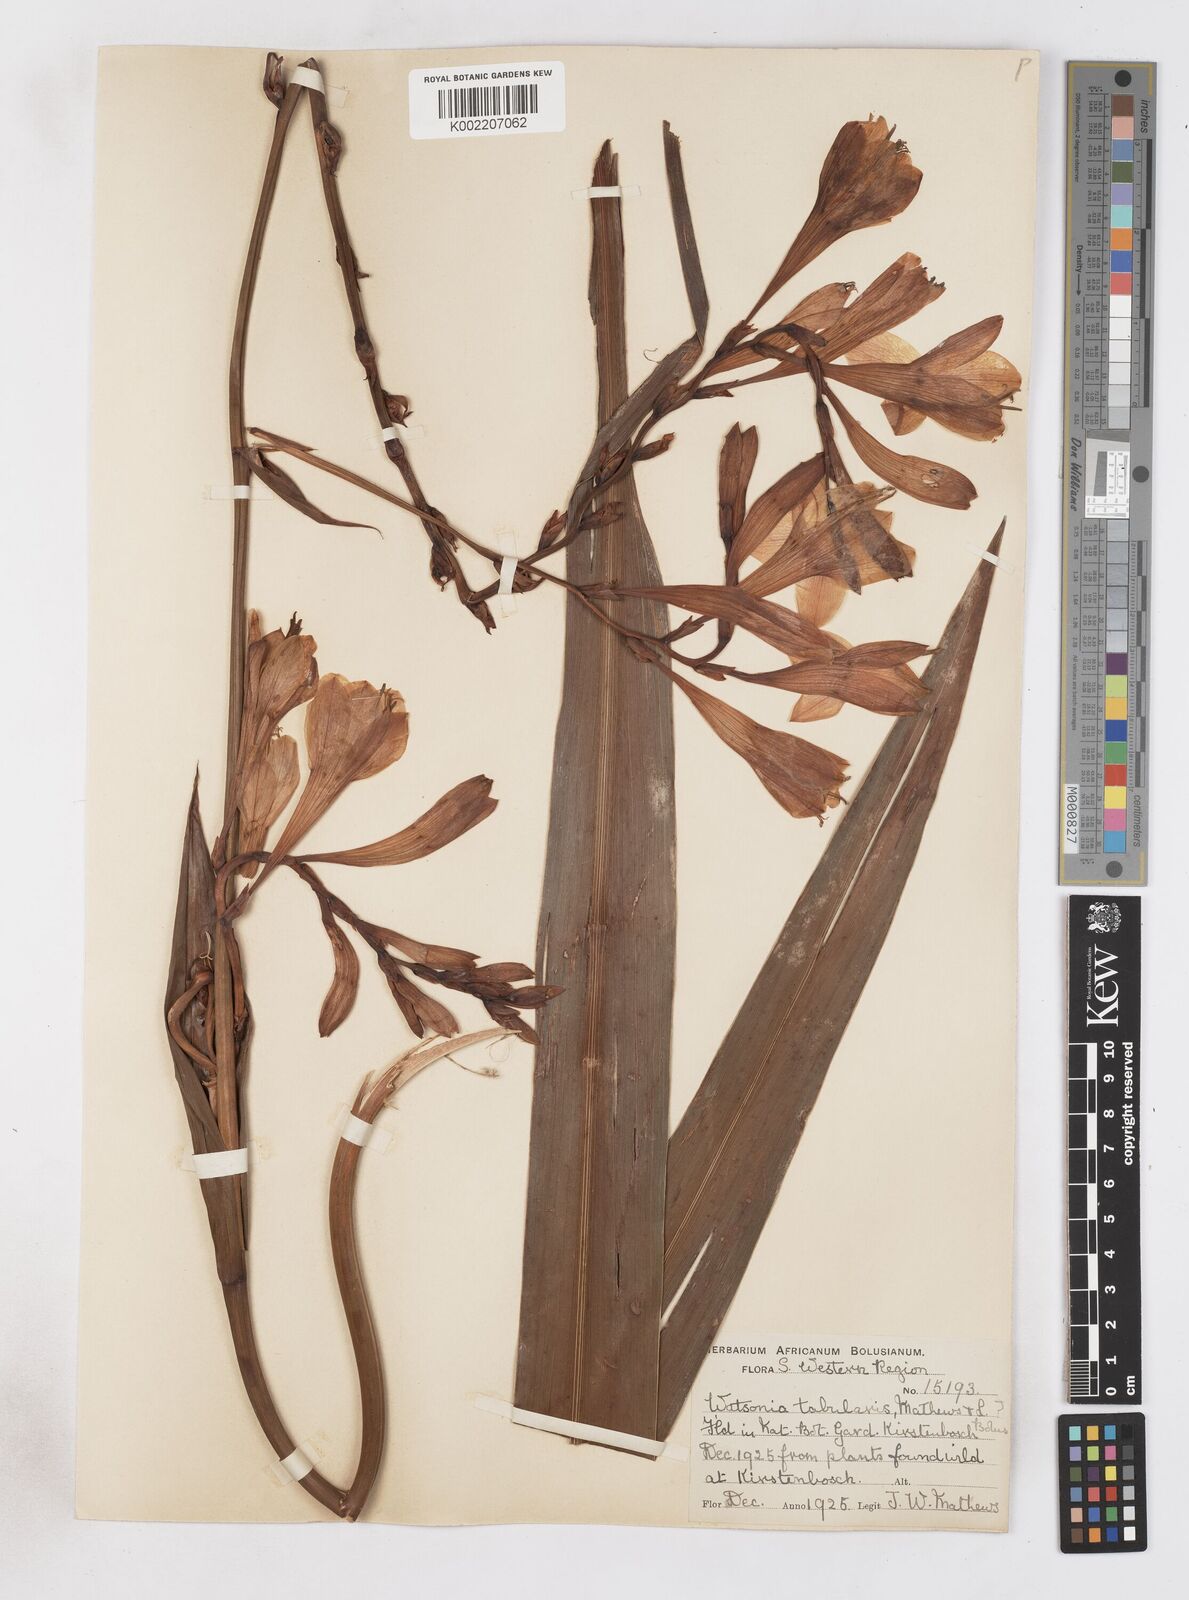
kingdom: Plantae
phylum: Tracheophyta
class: Liliopsida
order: Asparagales
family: Iridaceae
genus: Watsonia
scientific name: Watsonia versfeldii
